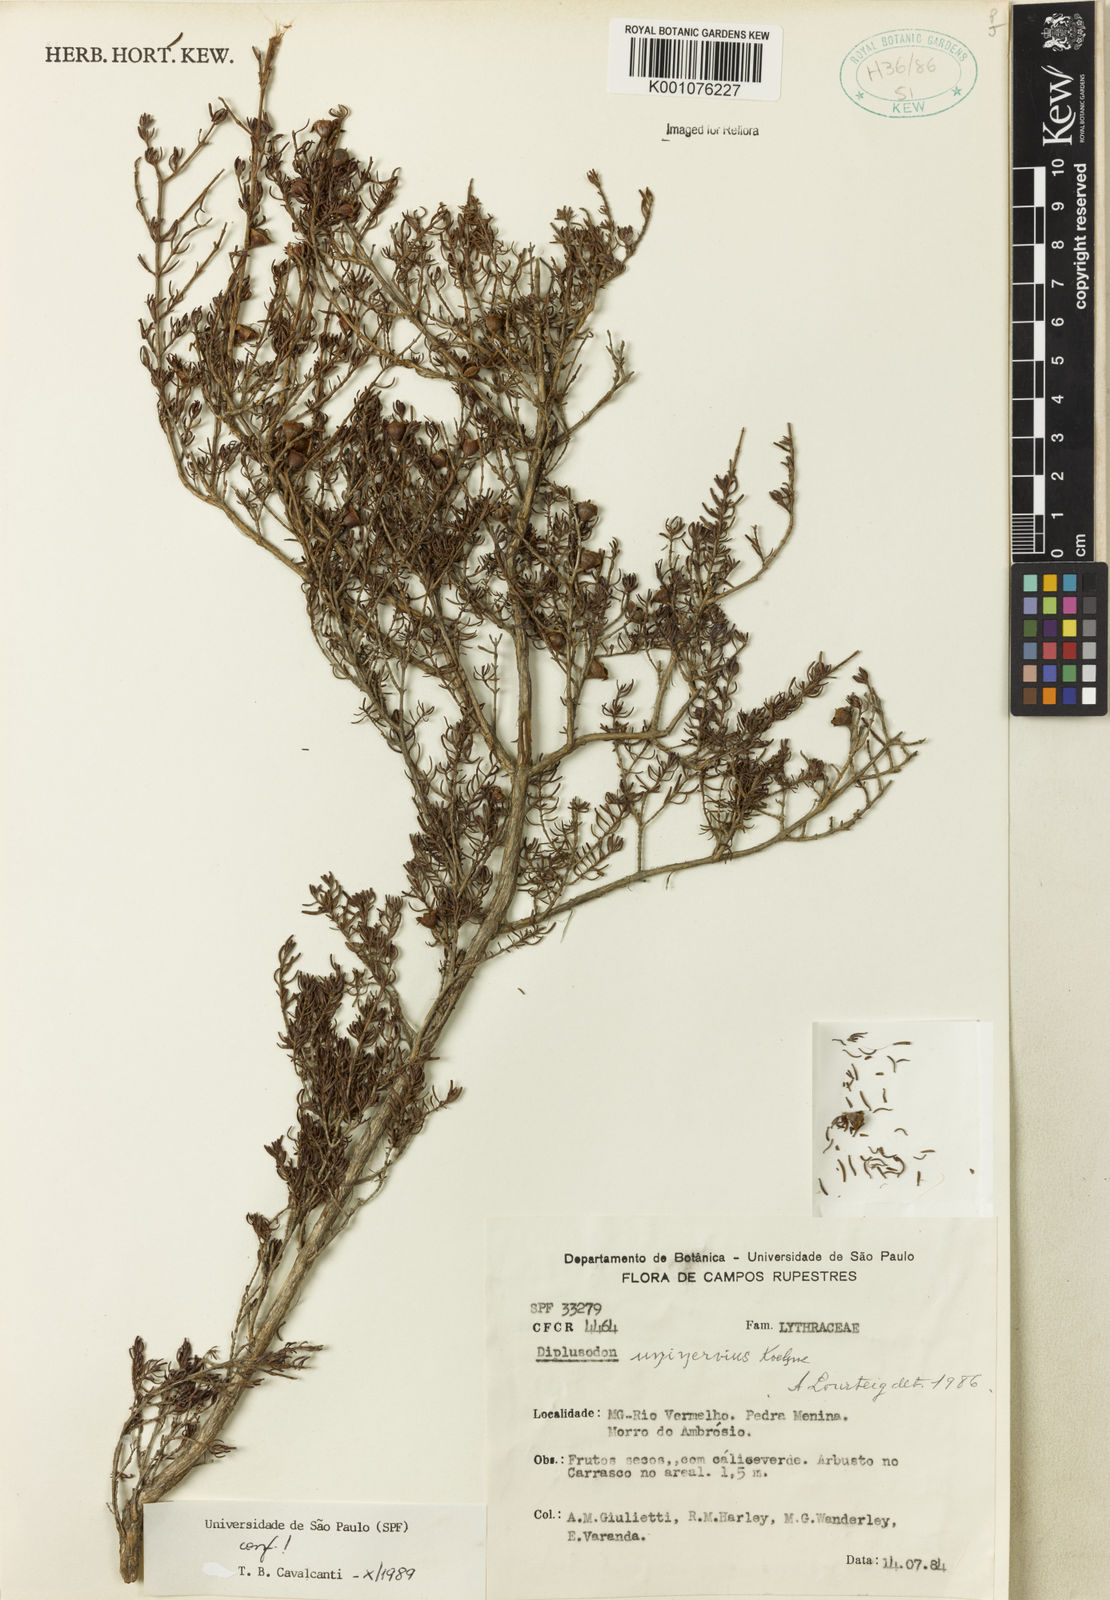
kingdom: Plantae
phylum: Tracheophyta
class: Magnoliopsida
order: Myrtales
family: Lythraceae
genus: Diplusodon
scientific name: Diplusodon uninervius
